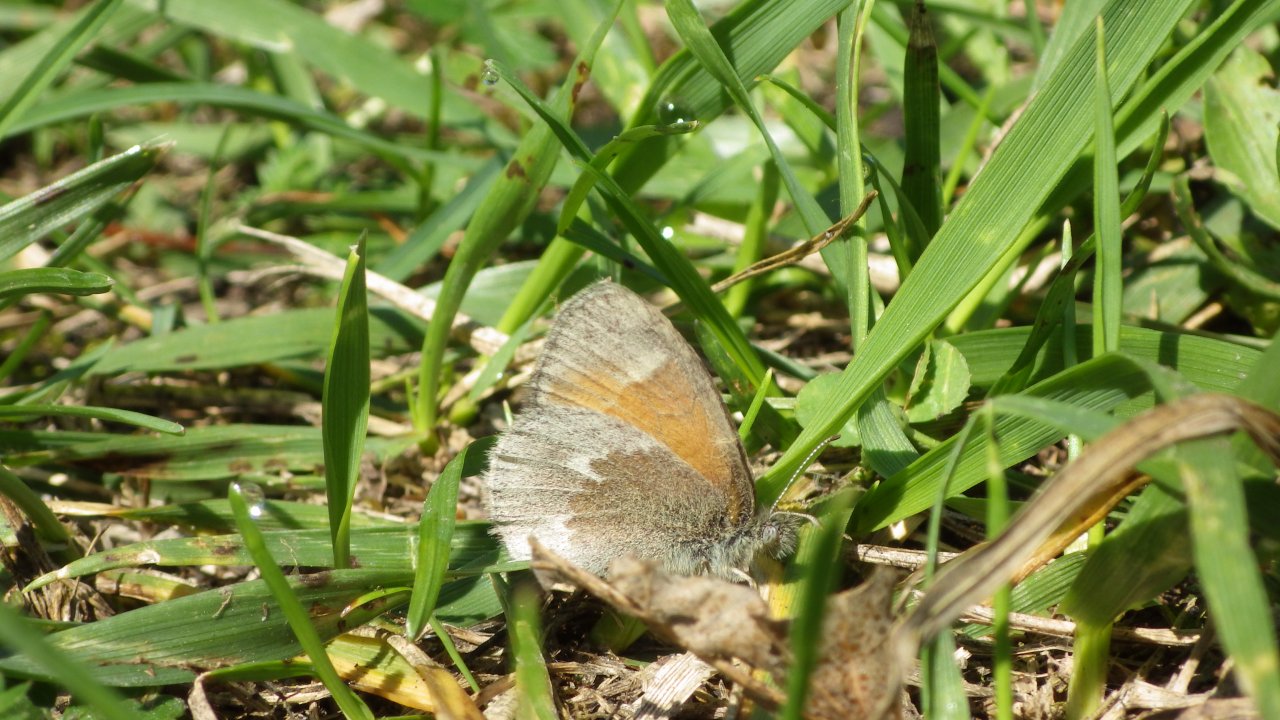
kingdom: Animalia
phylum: Arthropoda
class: Insecta
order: Lepidoptera
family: Nymphalidae
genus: Coenonympha
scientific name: Coenonympha tullia
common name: Large Heath
